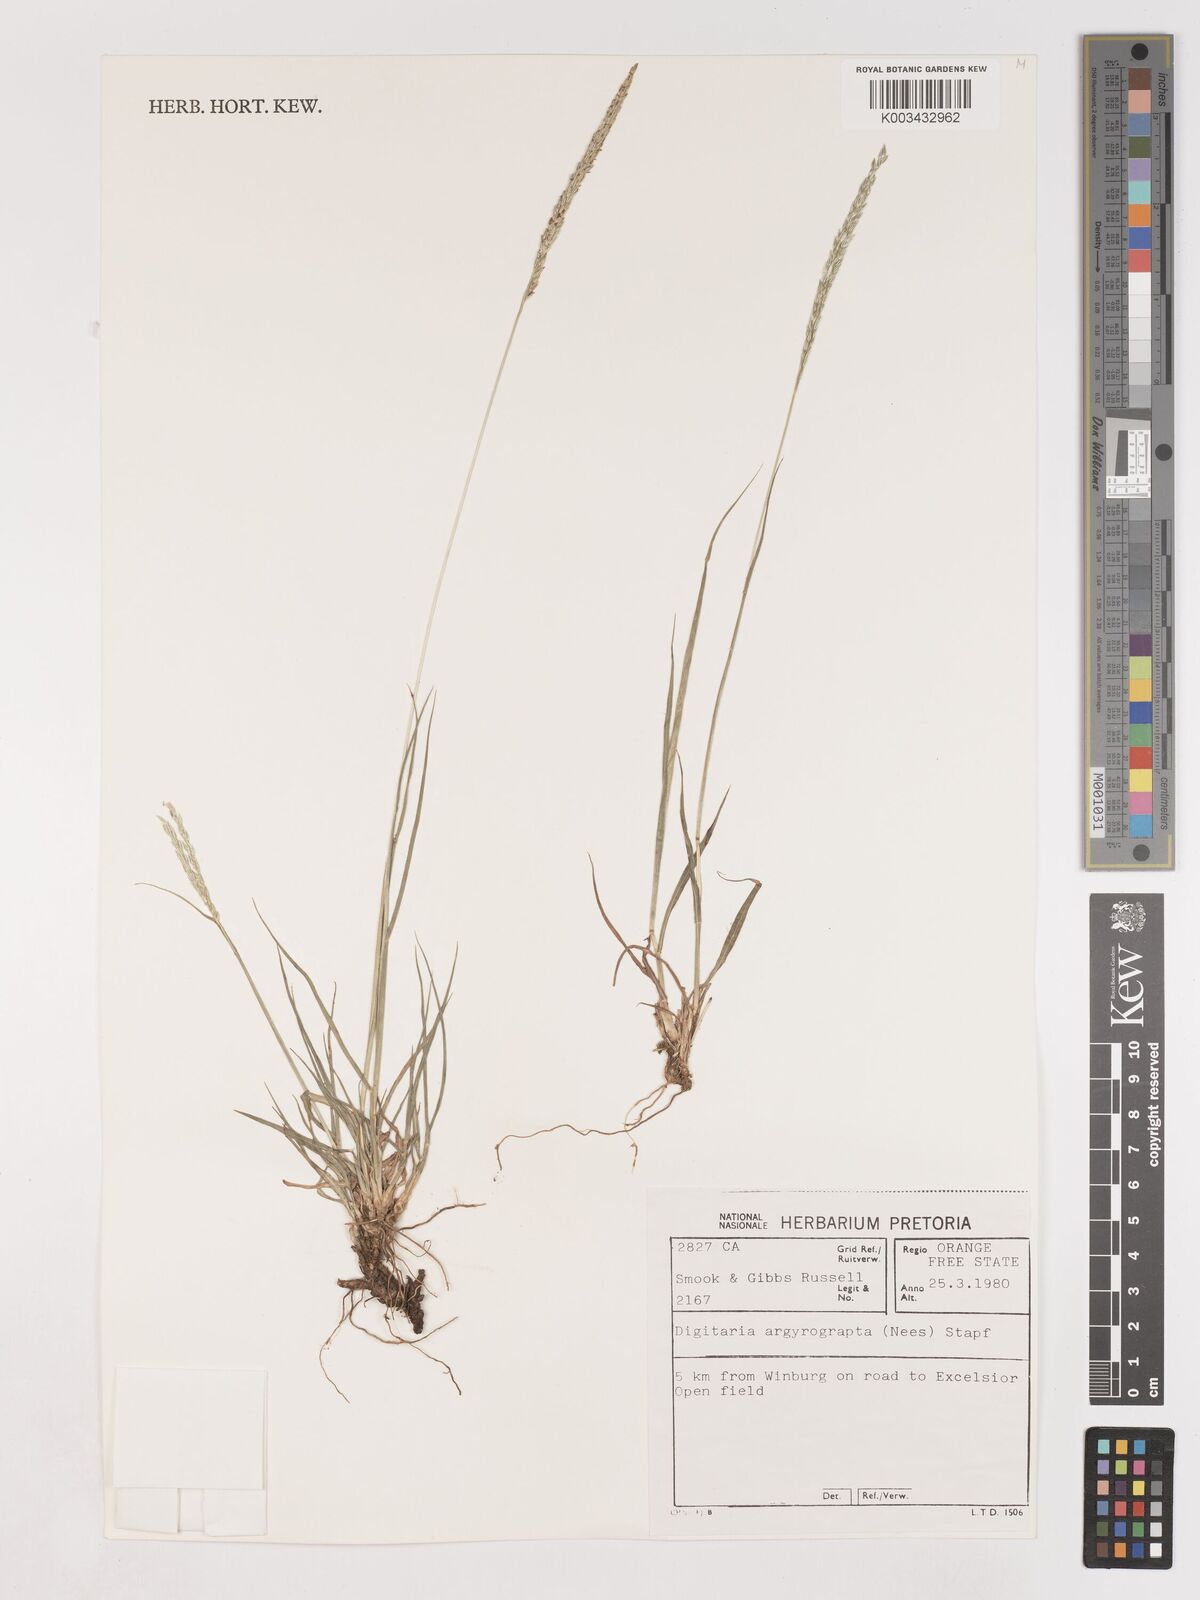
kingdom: Plantae
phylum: Tracheophyta
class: Liliopsida
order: Poales
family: Poaceae
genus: Digitaria
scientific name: Digitaria argyrograpta
